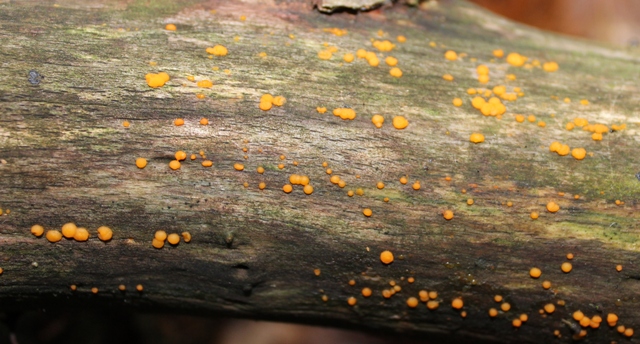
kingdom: Fungi
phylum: Basidiomycota
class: Dacrymycetes
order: Dacrymycetales
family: Dacrymycetaceae
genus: Dacrymyces
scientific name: Dacrymyces stillatus
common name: almindelig tåresvamp
